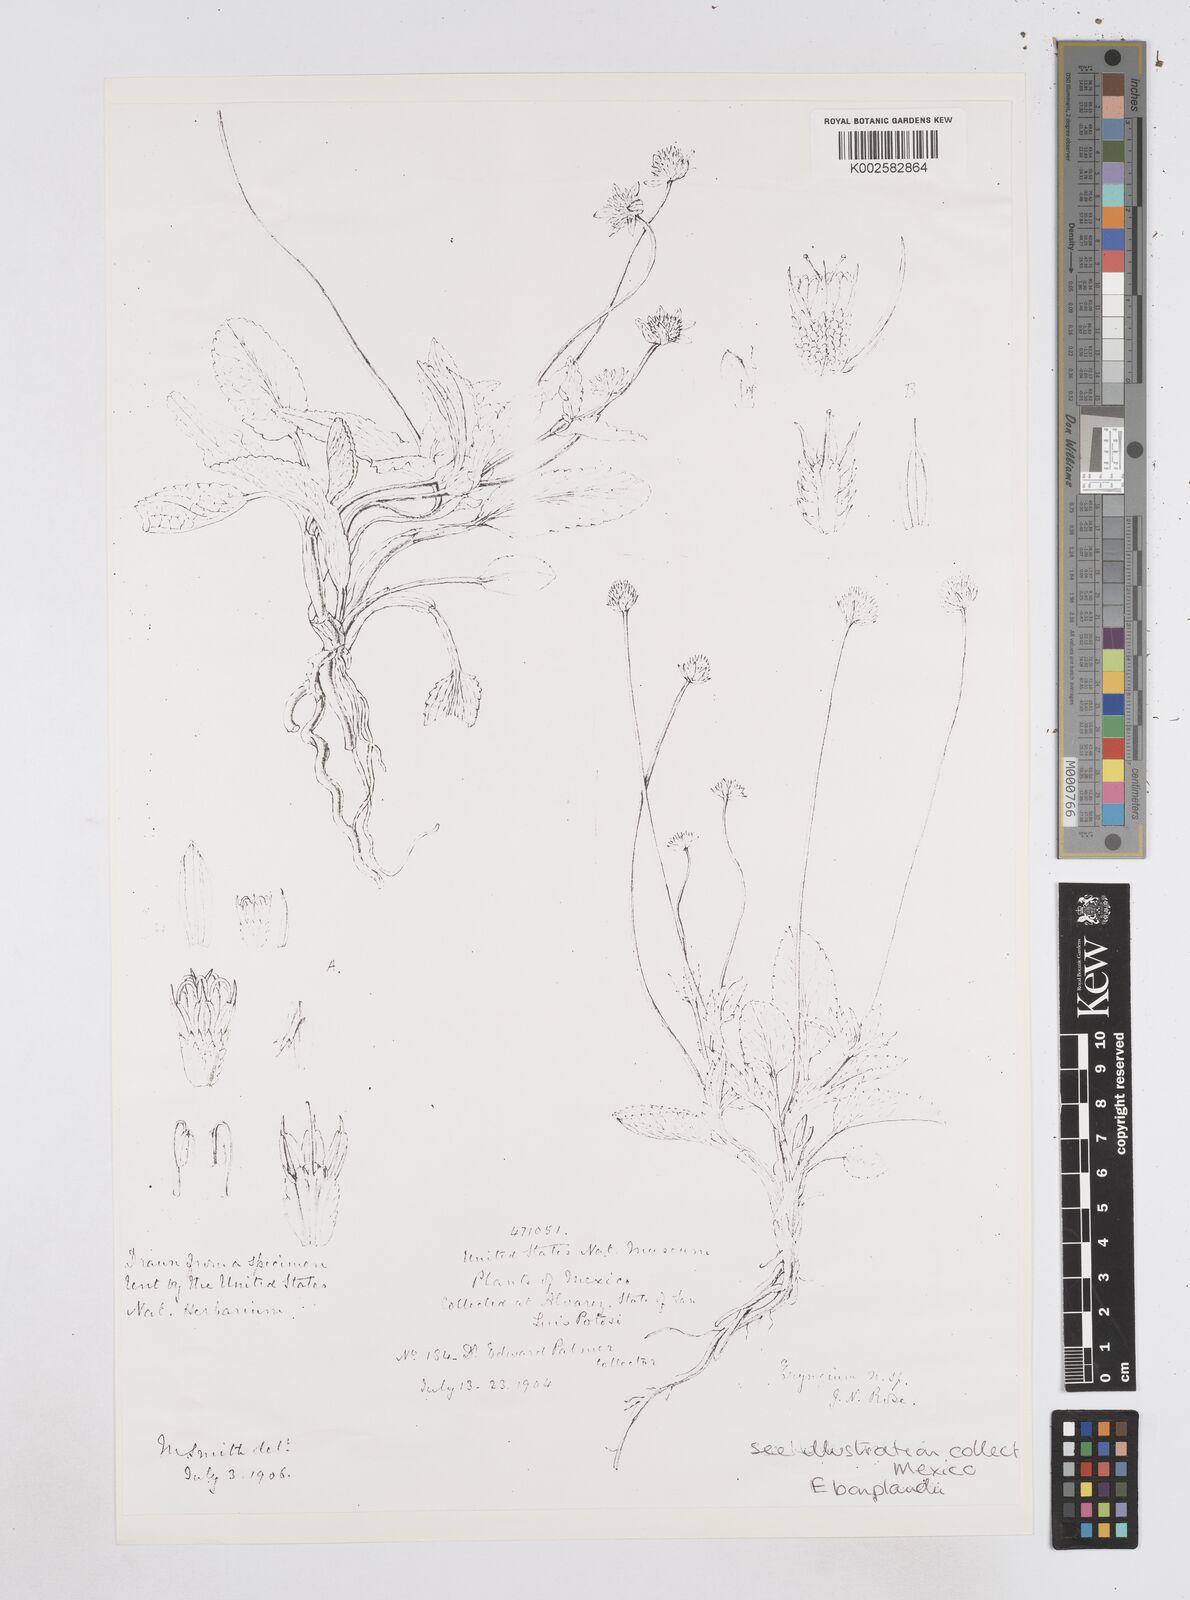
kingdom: Plantae
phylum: Tracheophyta
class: Magnoliopsida
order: Apiales
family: Apiaceae
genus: Eryngium
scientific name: Eryngium bonplandii
